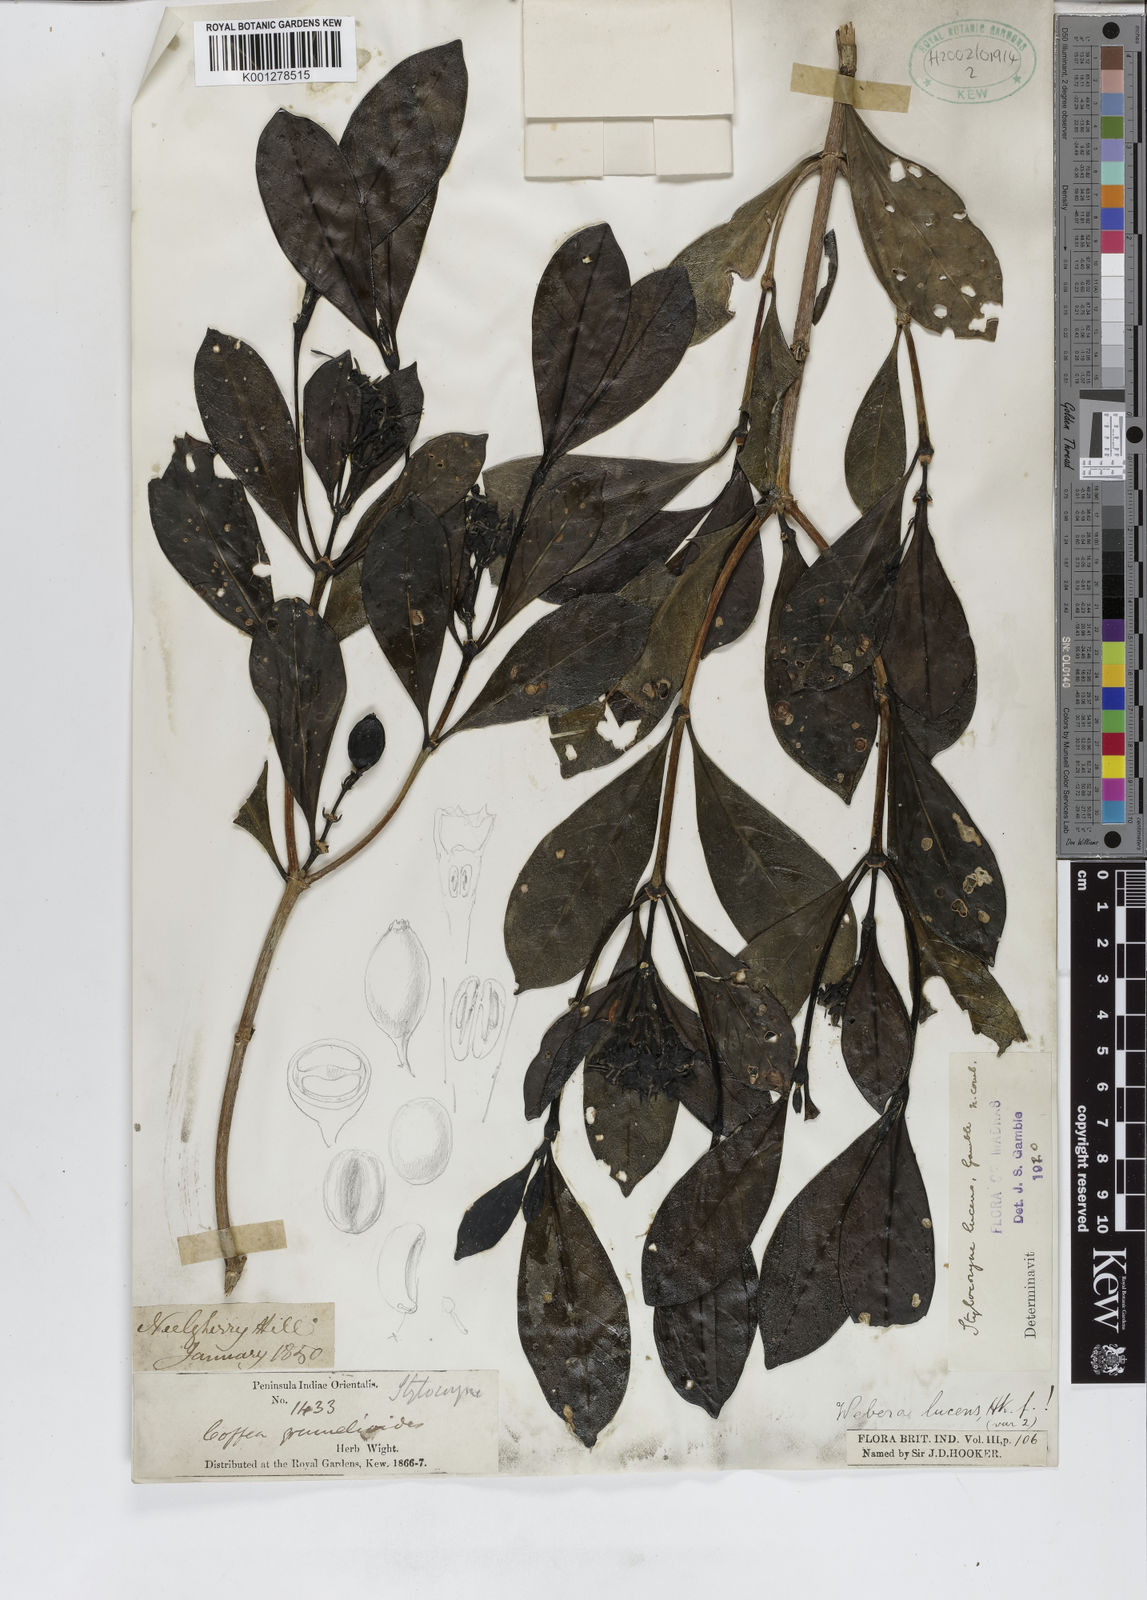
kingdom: Plantae
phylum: Tracheophyta
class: Magnoliopsida
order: Gentianales
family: Rubiaceae
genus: Tarenna
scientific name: Tarenna alpestris
